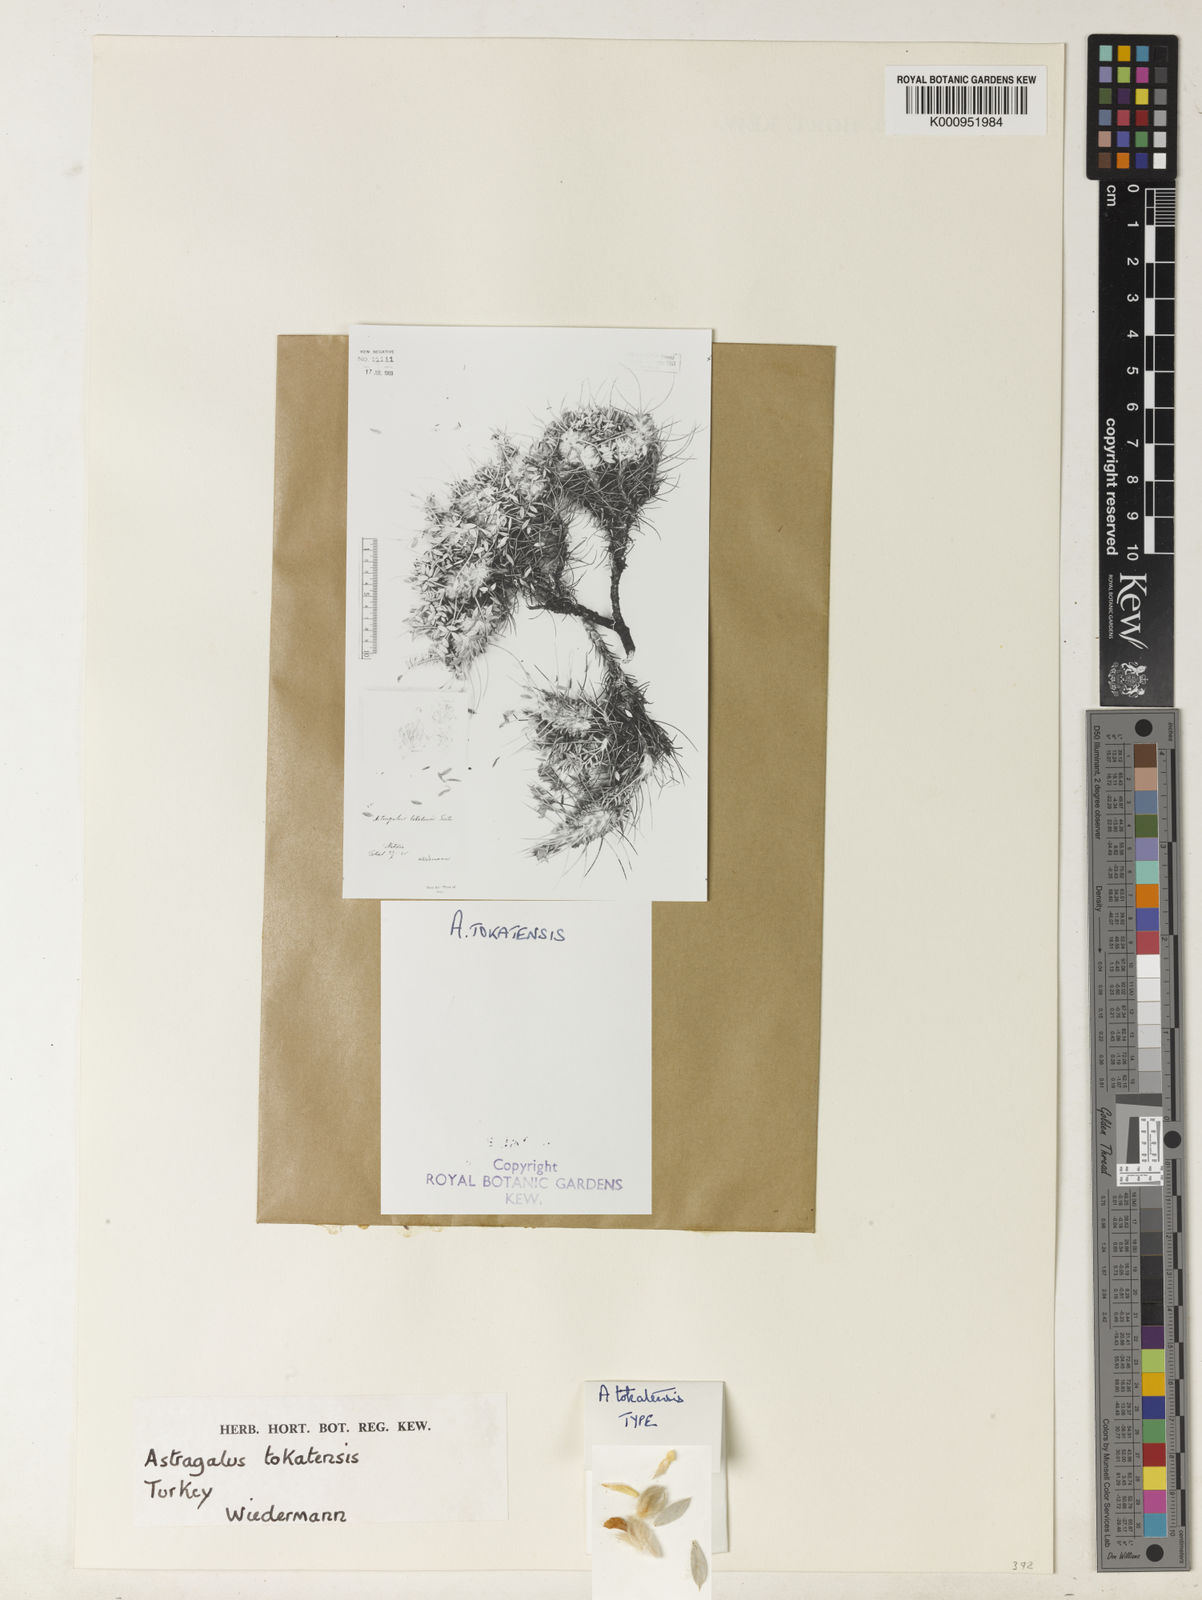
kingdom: Plantae
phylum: Tracheophyta
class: Magnoliopsida
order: Fabales
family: Fabaceae
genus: Astragalus
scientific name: Astragalus micropterus
